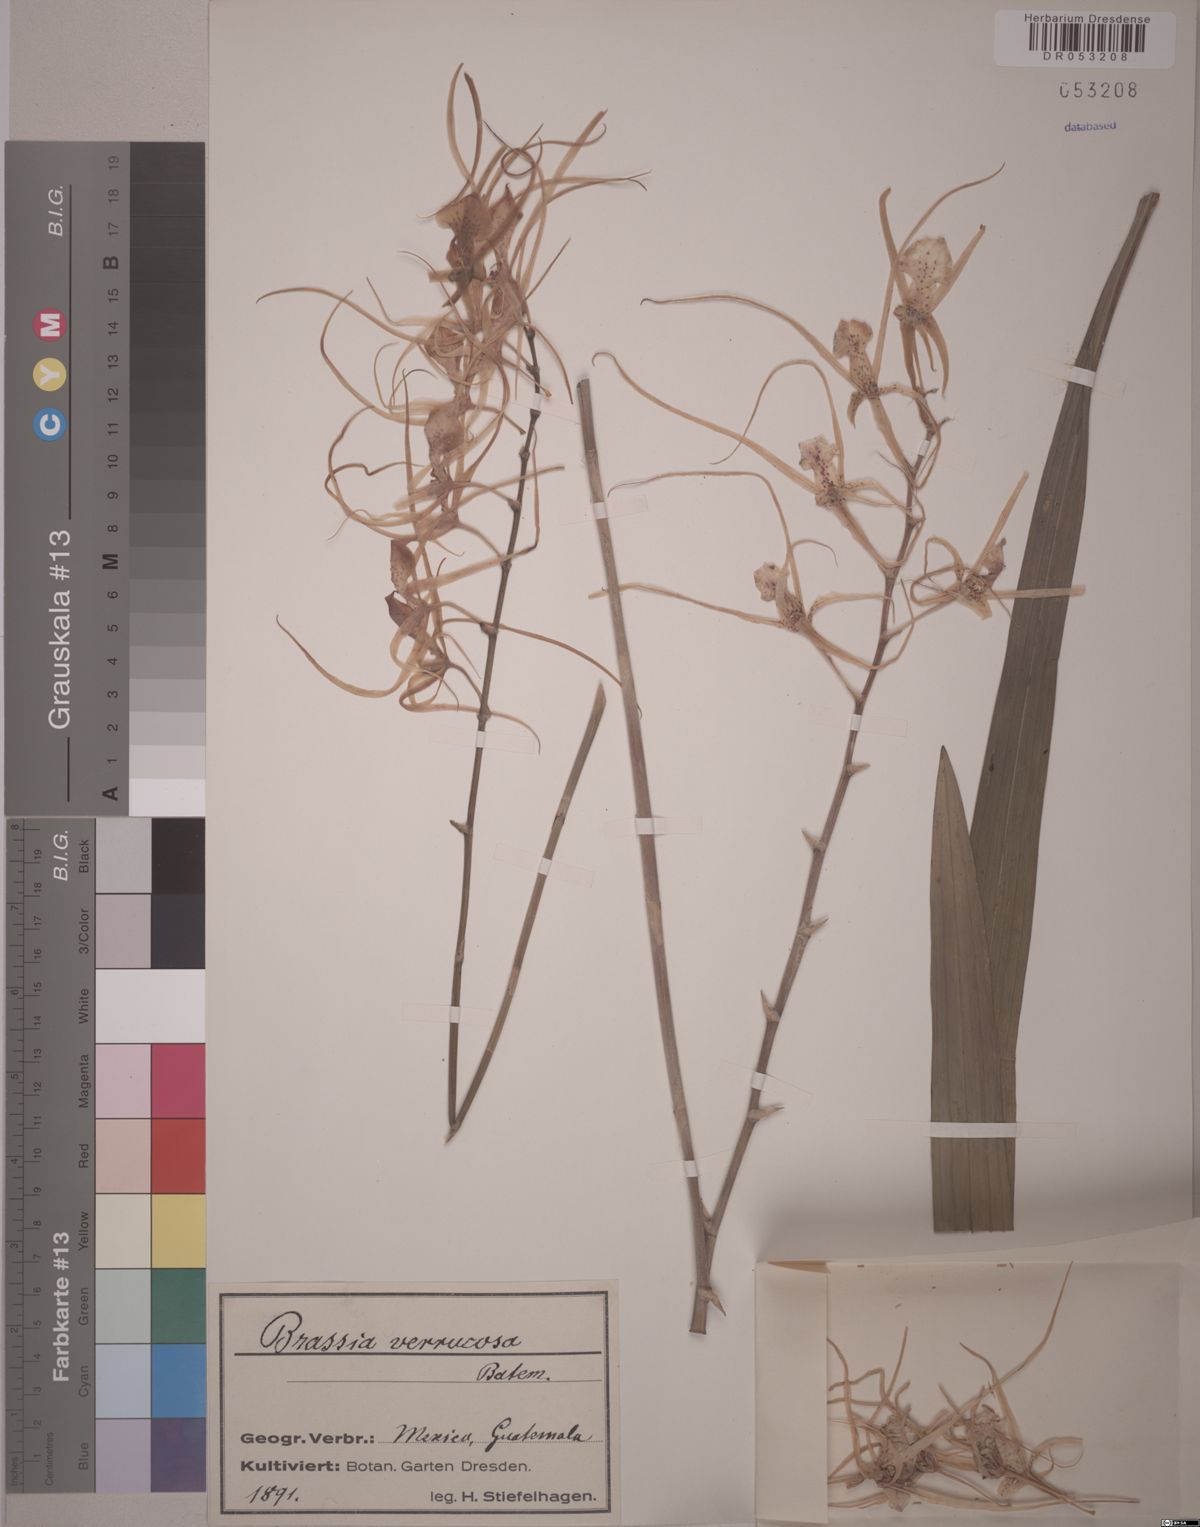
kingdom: Plantae
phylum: Tracheophyta
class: Liliopsida
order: Asparagales
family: Orchidaceae
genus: Brassia
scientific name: Brassia verrucosa
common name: Warty brassia
